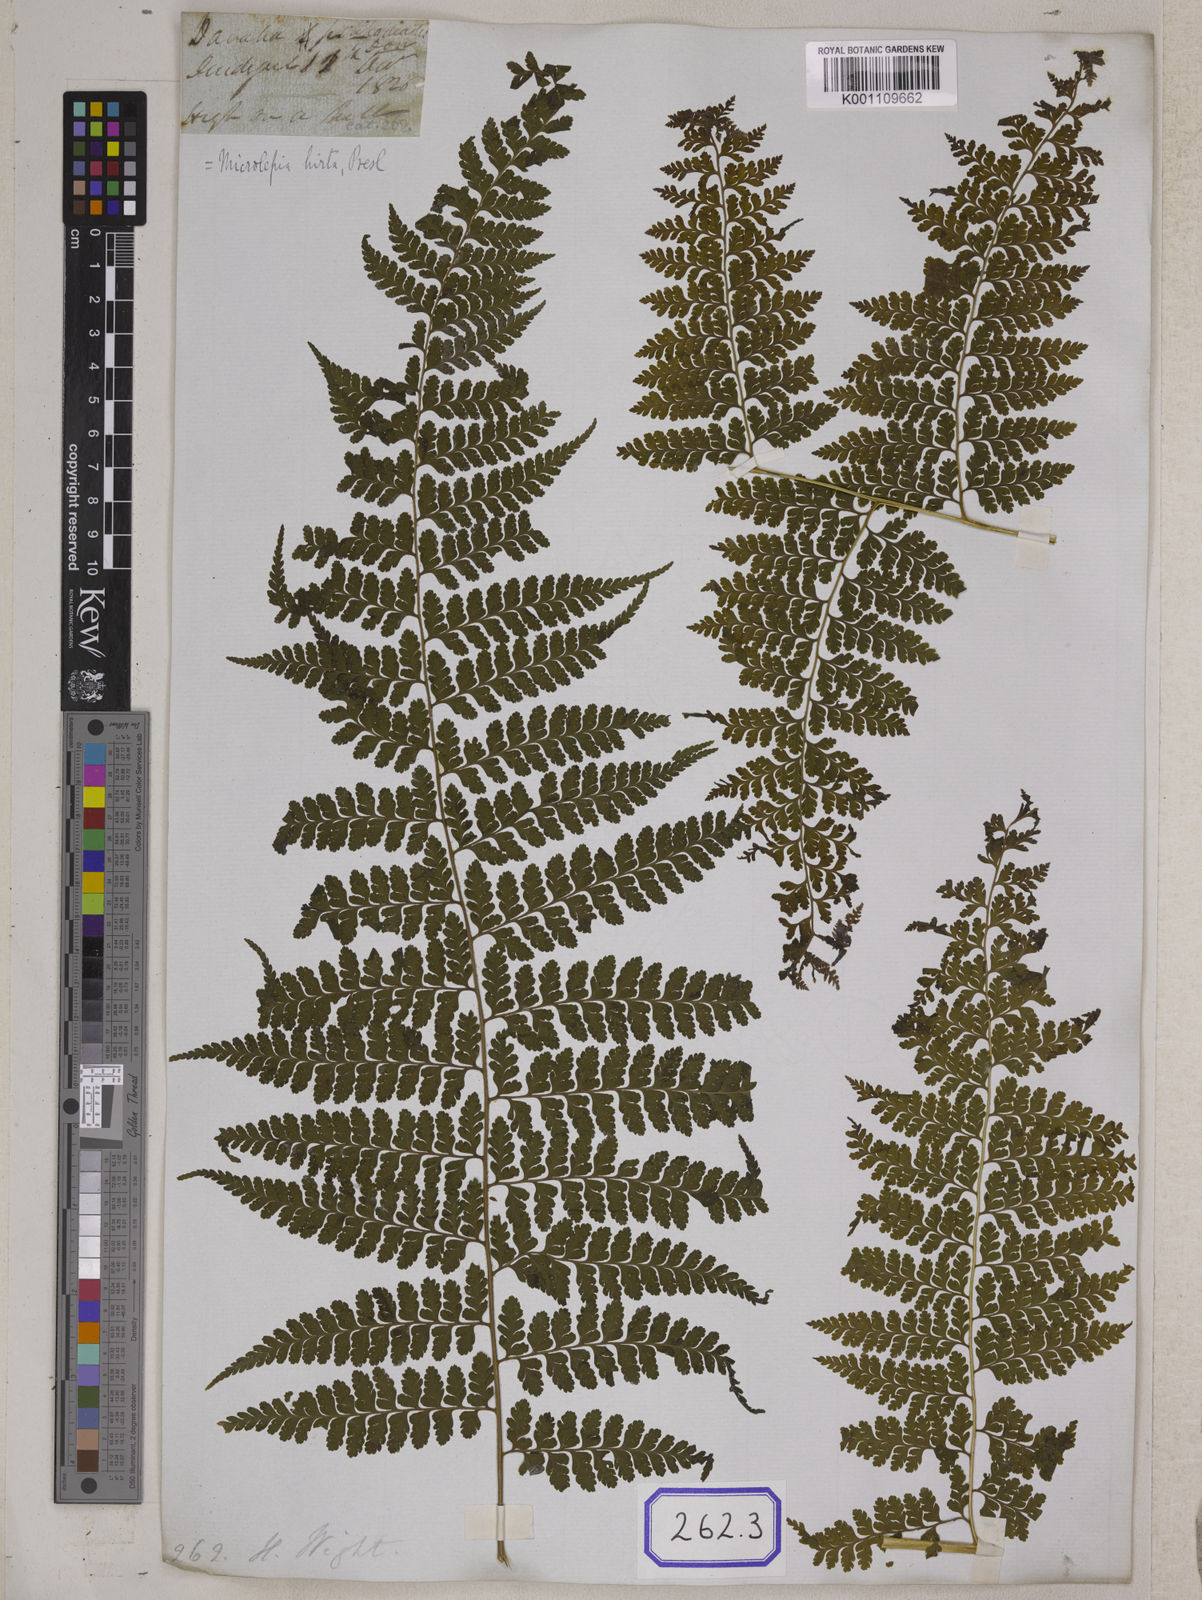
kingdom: Plantae
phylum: Tracheophyta
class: Polypodiopsida
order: Polypodiales
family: Dennstaedtiaceae
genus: Microlepia
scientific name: Microlepia marginata
